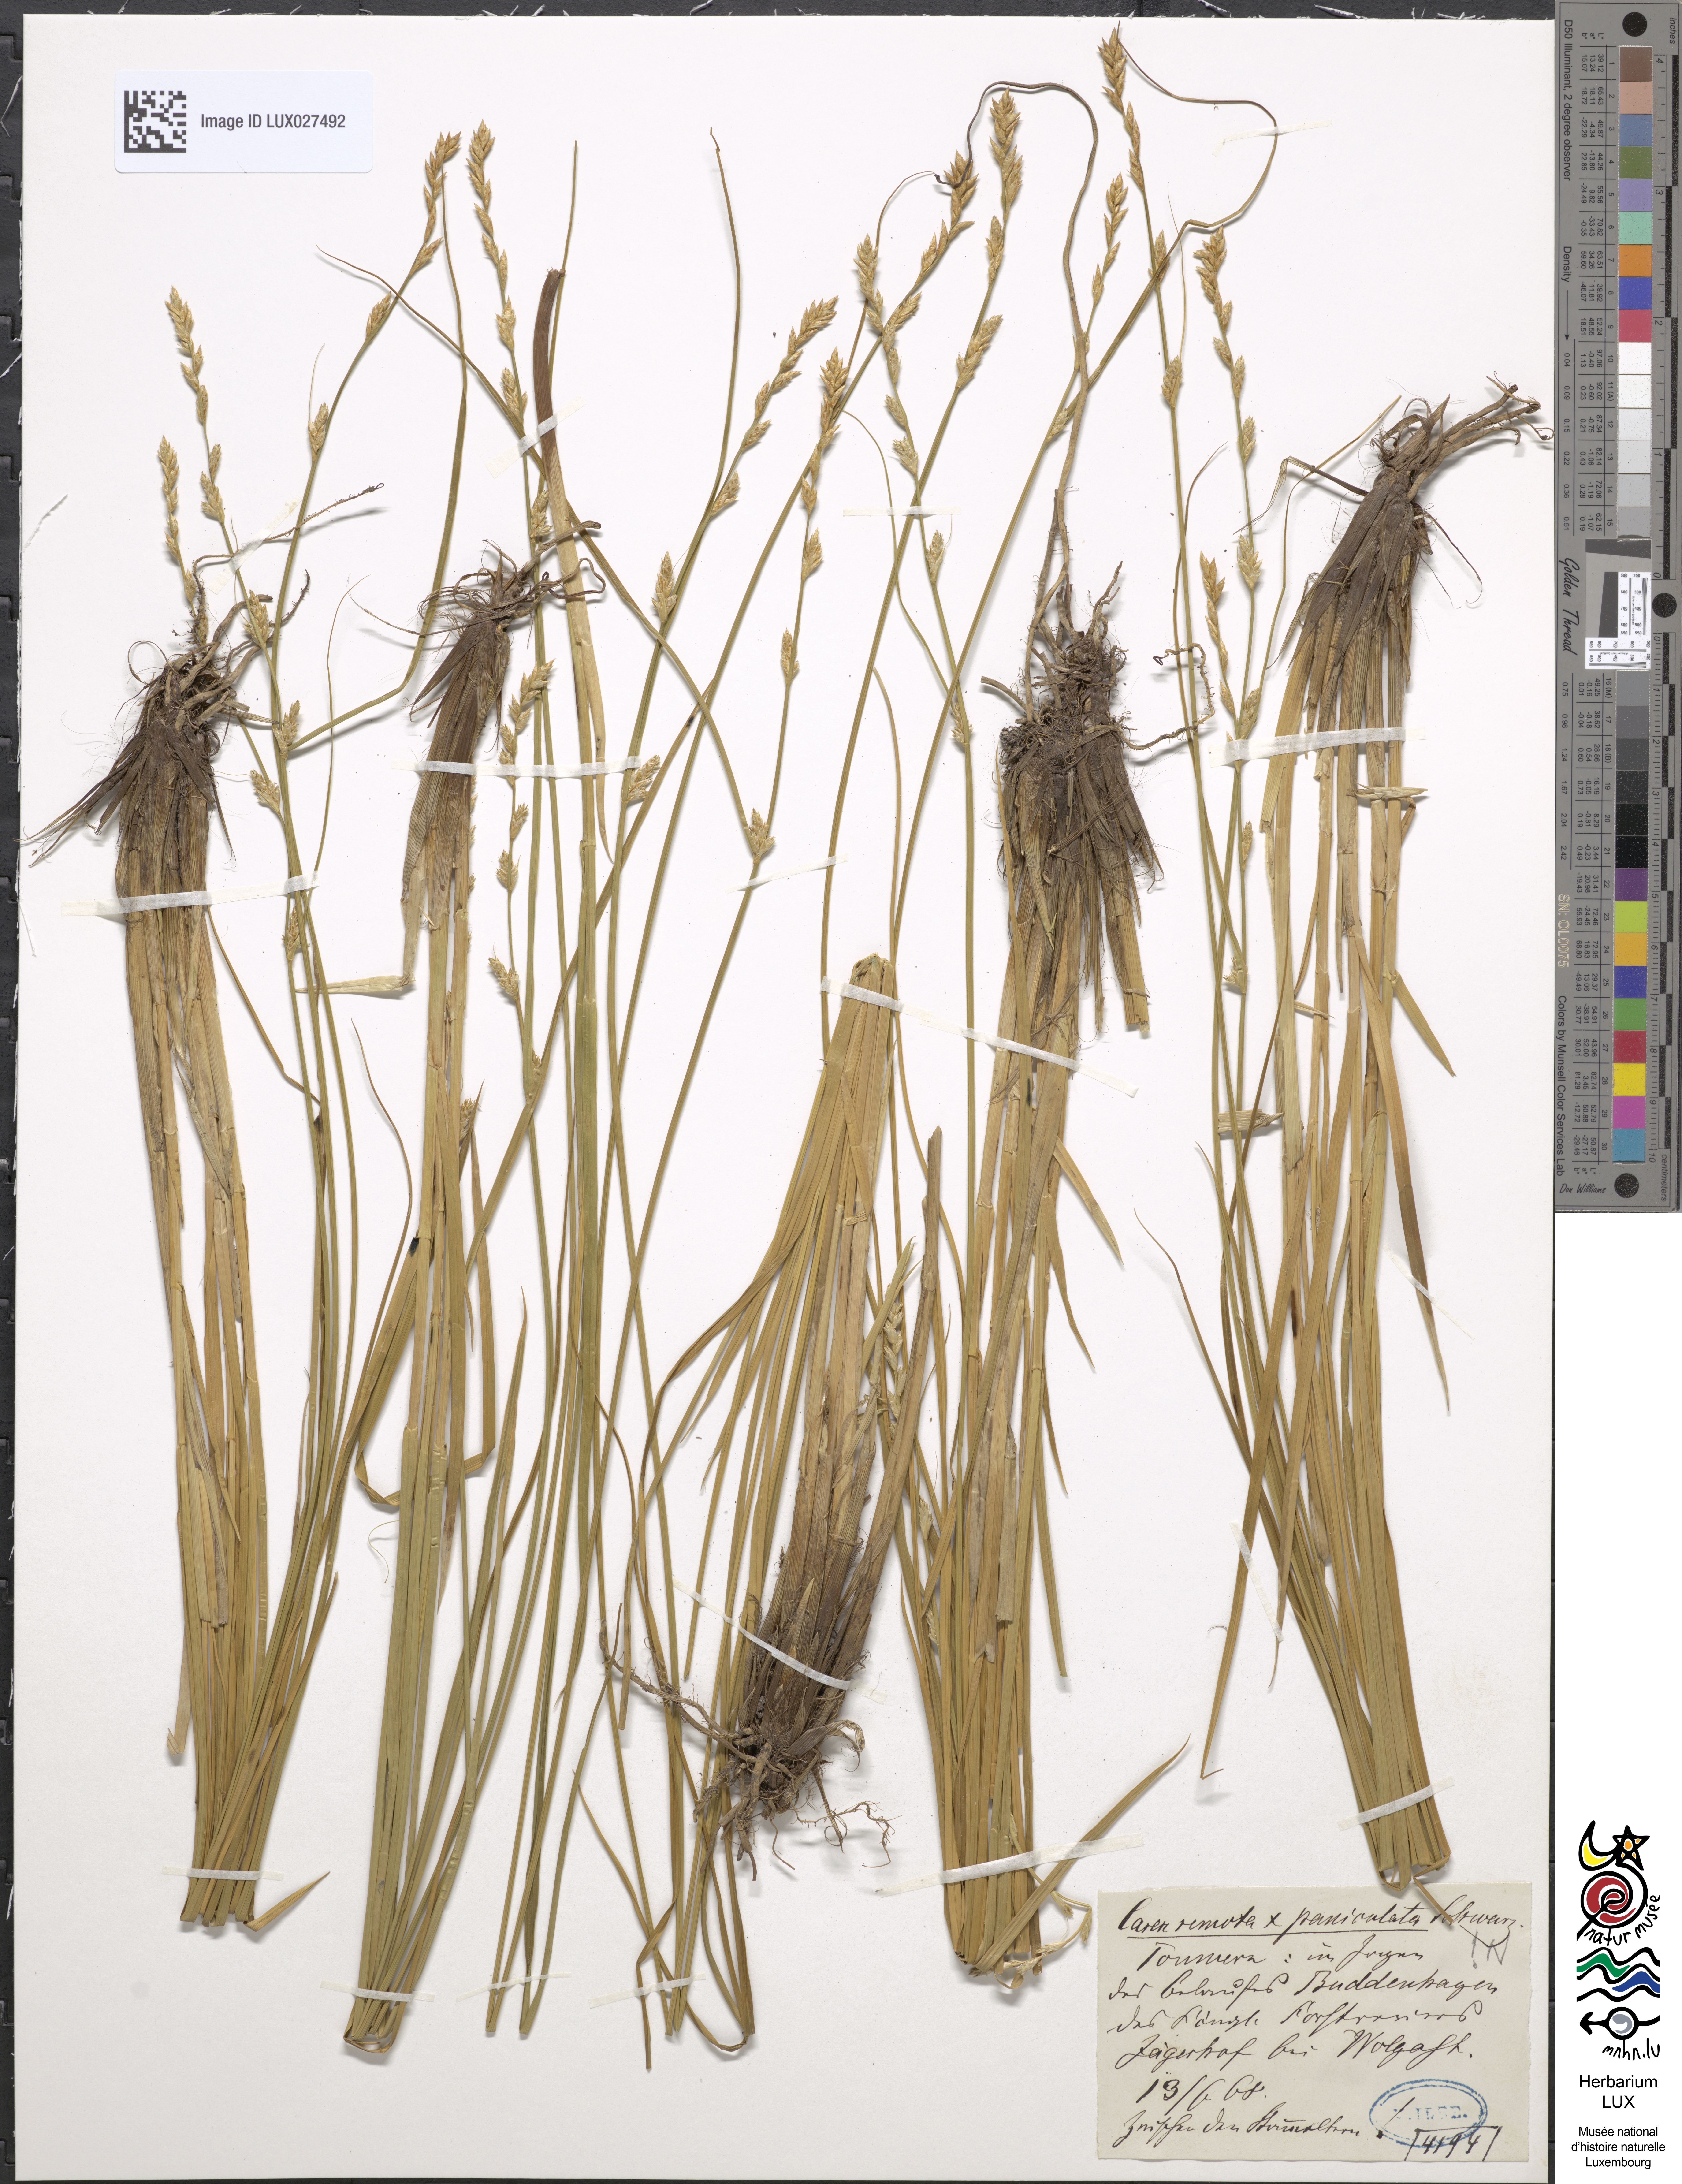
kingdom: Plantae
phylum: Tracheophyta
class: Liliopsida
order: Poales
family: Cyperaceae
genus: Carex
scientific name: Carex boenninghausiana
